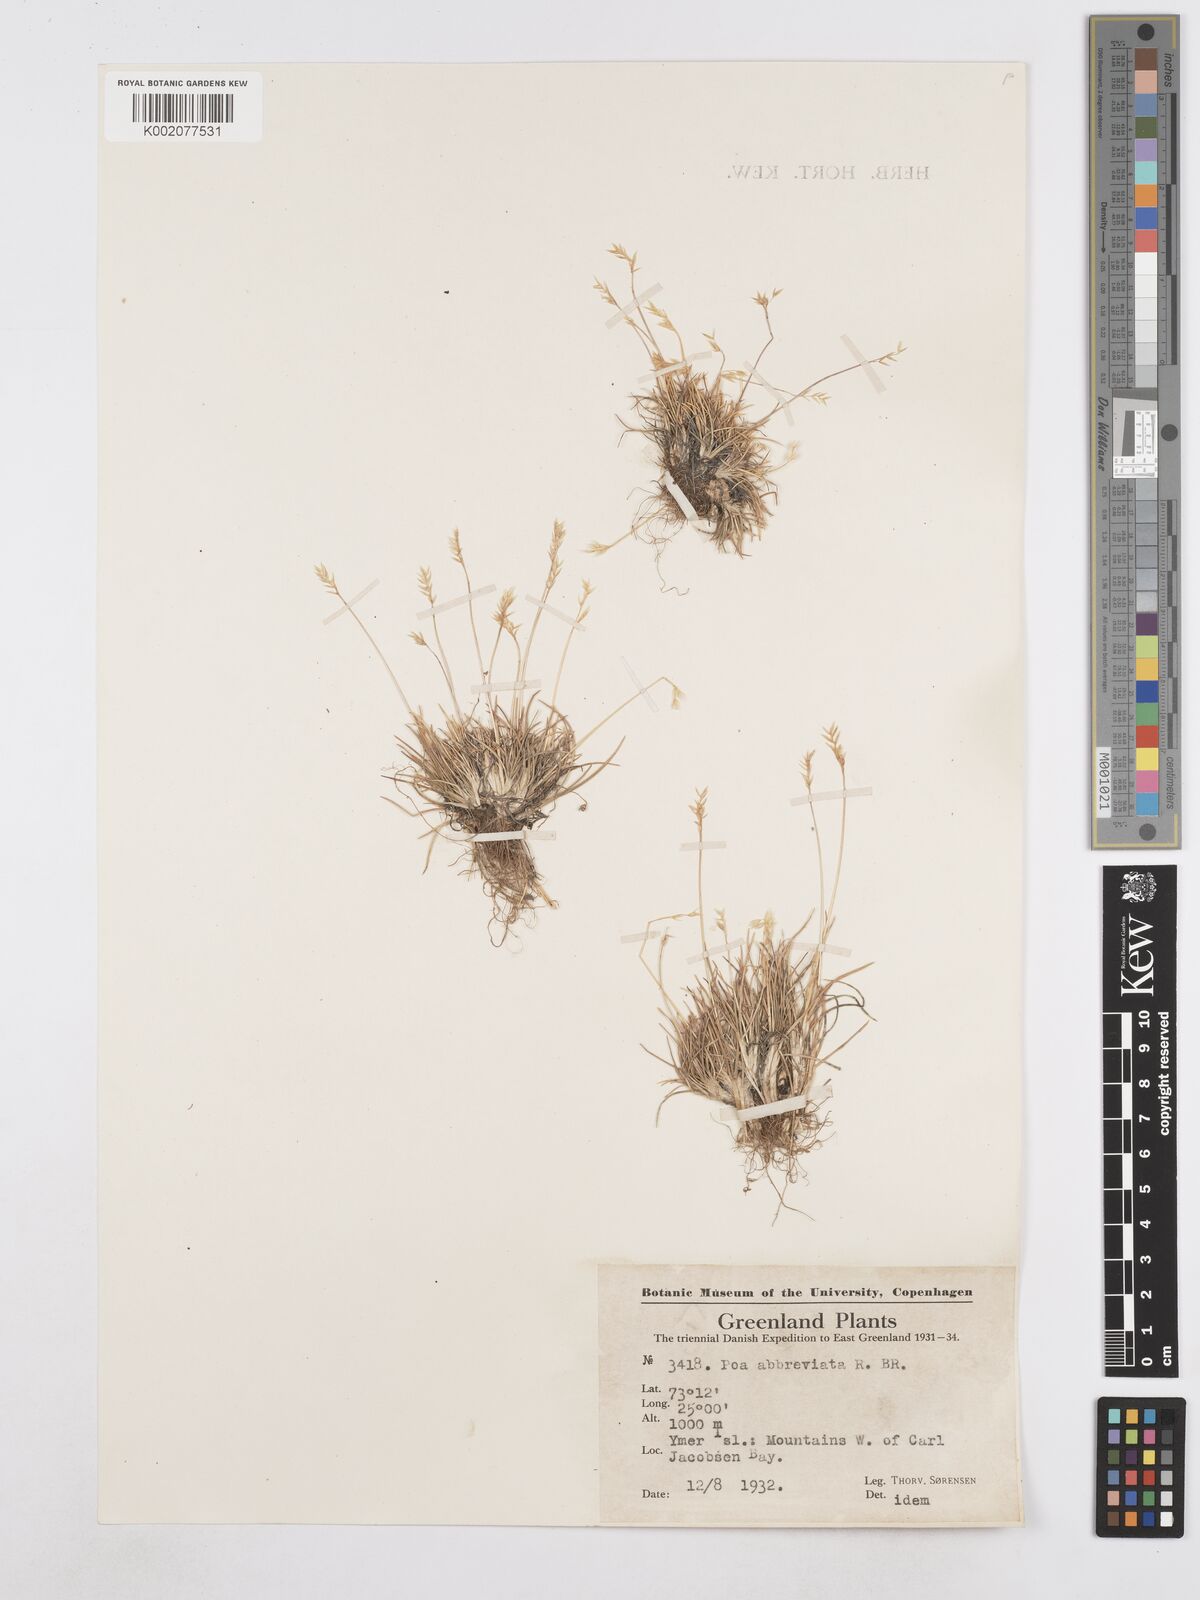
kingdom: Plantae
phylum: Tracheophyta
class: Liliopsida
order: Poales
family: Poaceae
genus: Poa
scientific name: Poa abbreviata
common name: Abbreviated bluegrass
